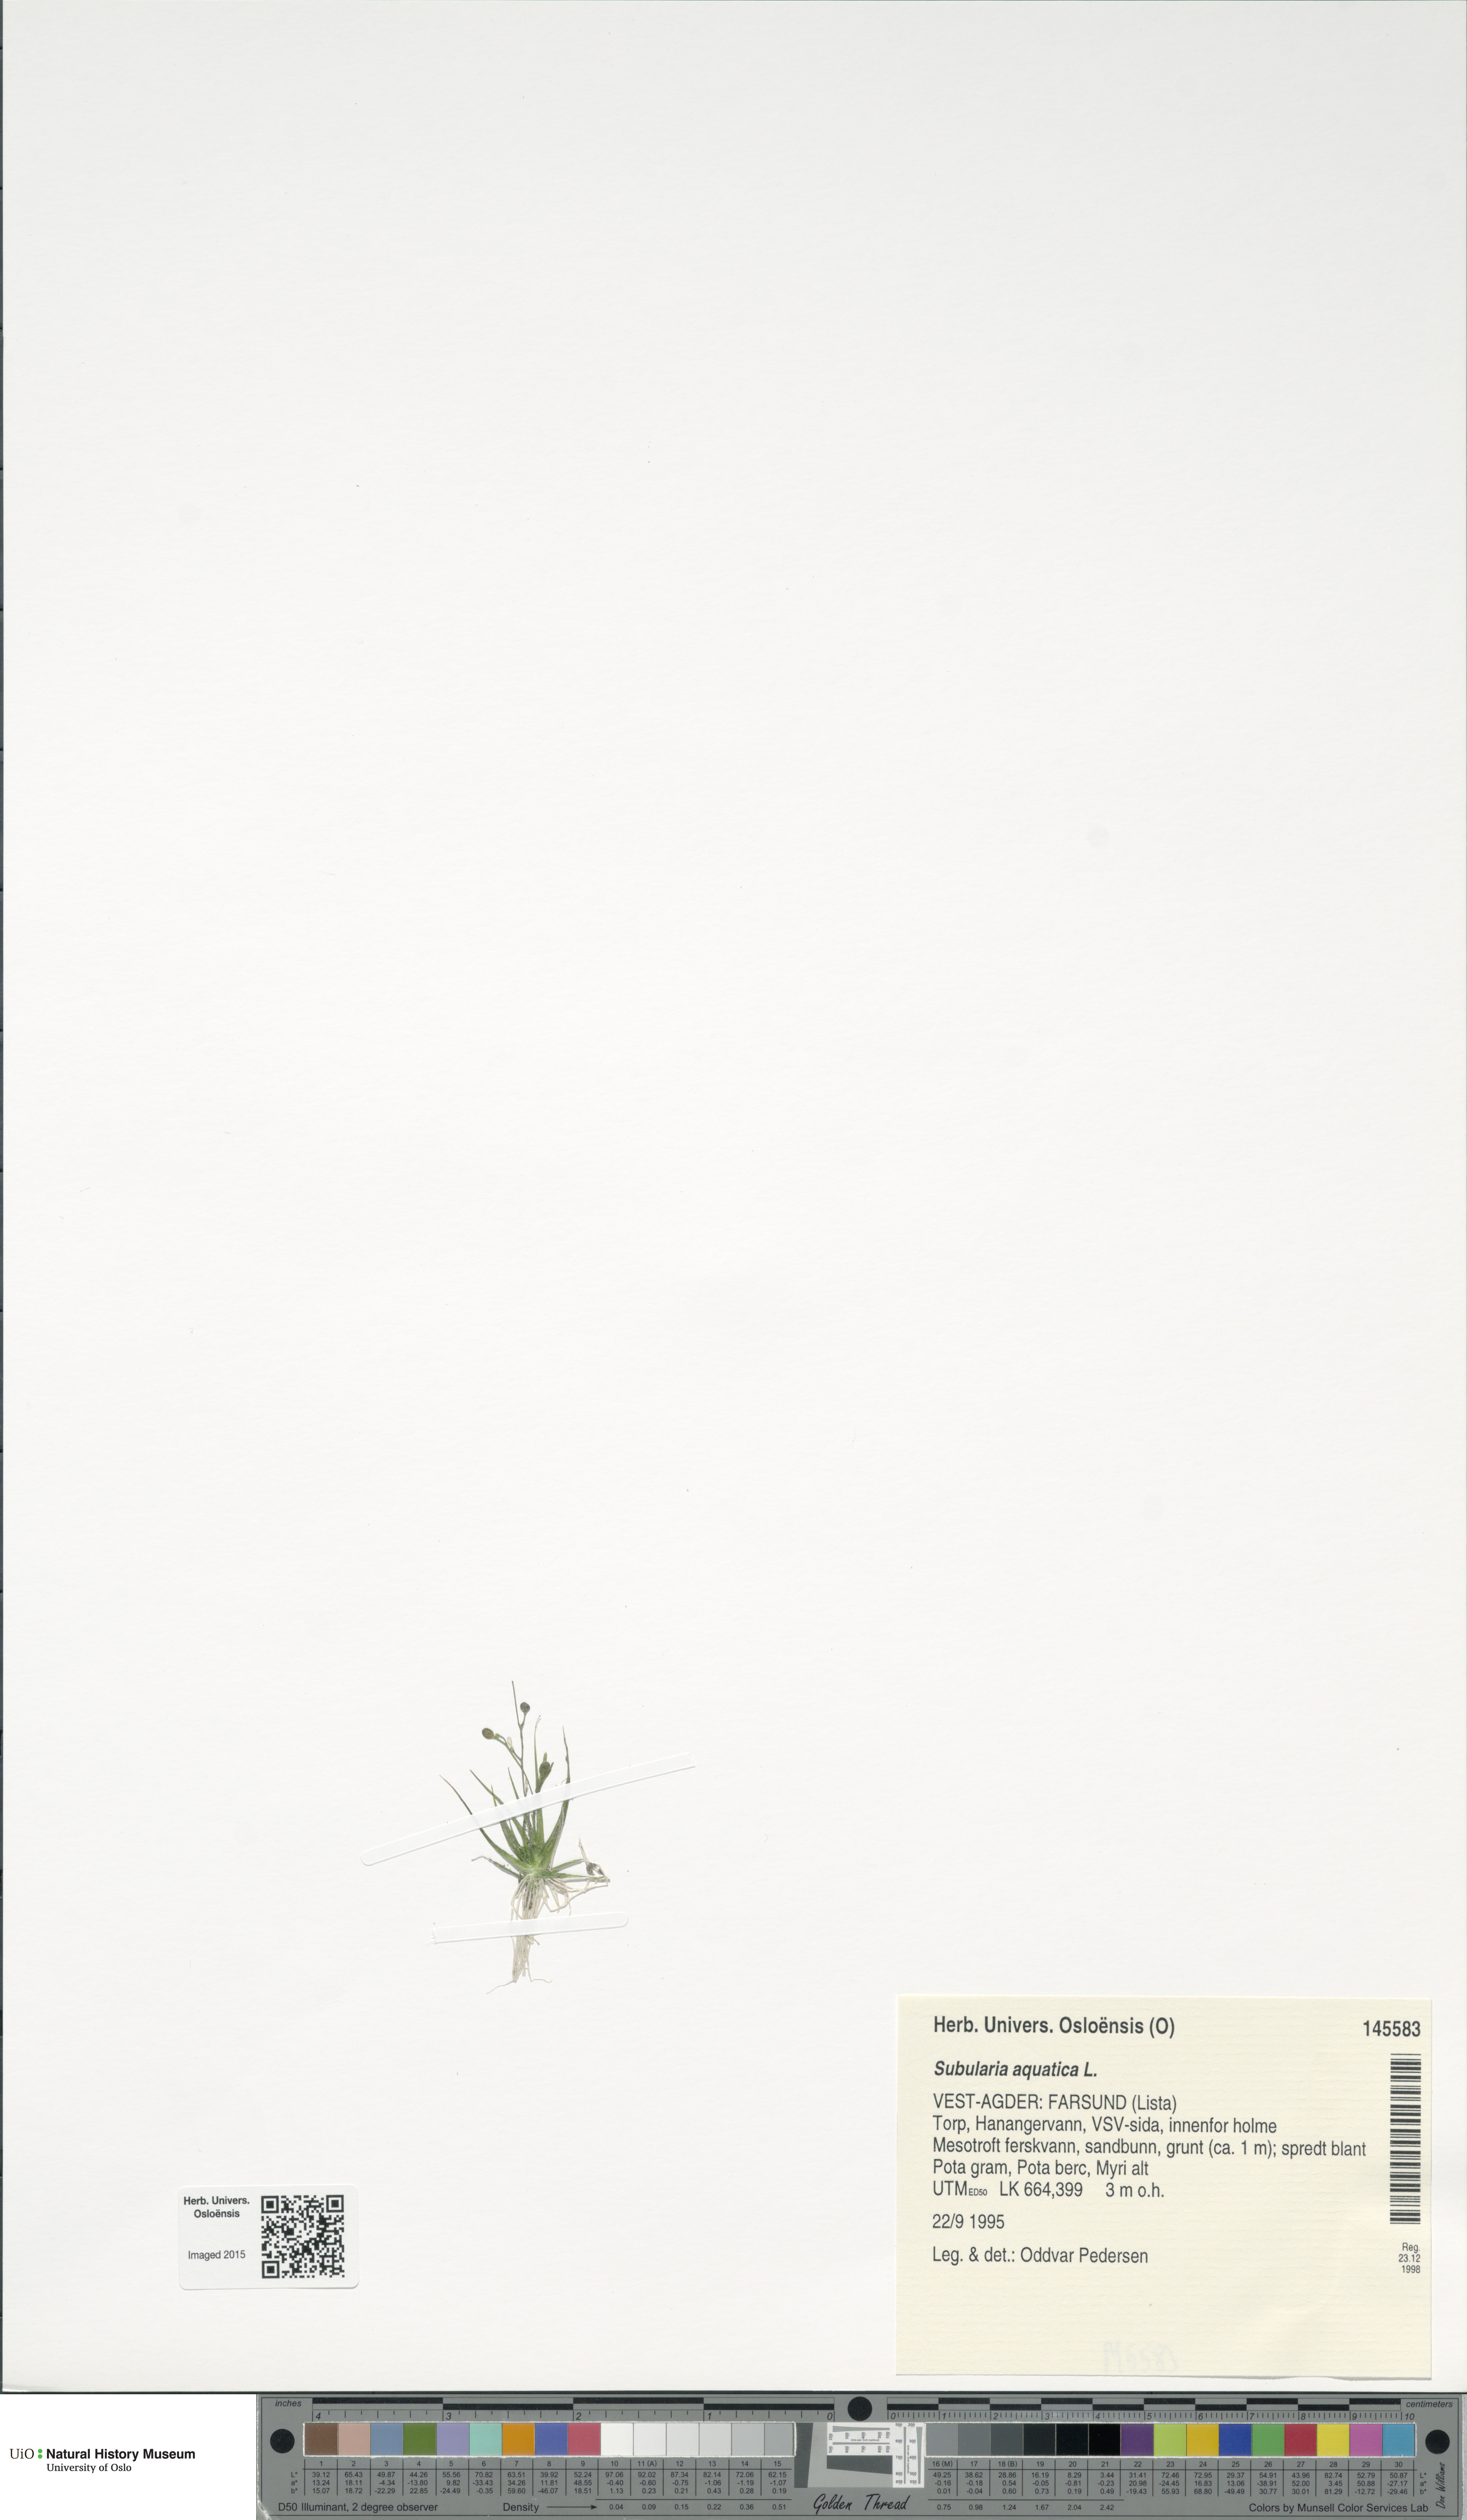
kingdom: Plantae
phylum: Tracheophyta
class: Magnoliopsida
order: Malpighiales
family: Salicaceae
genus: Salix
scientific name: Salix alba
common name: White willow
